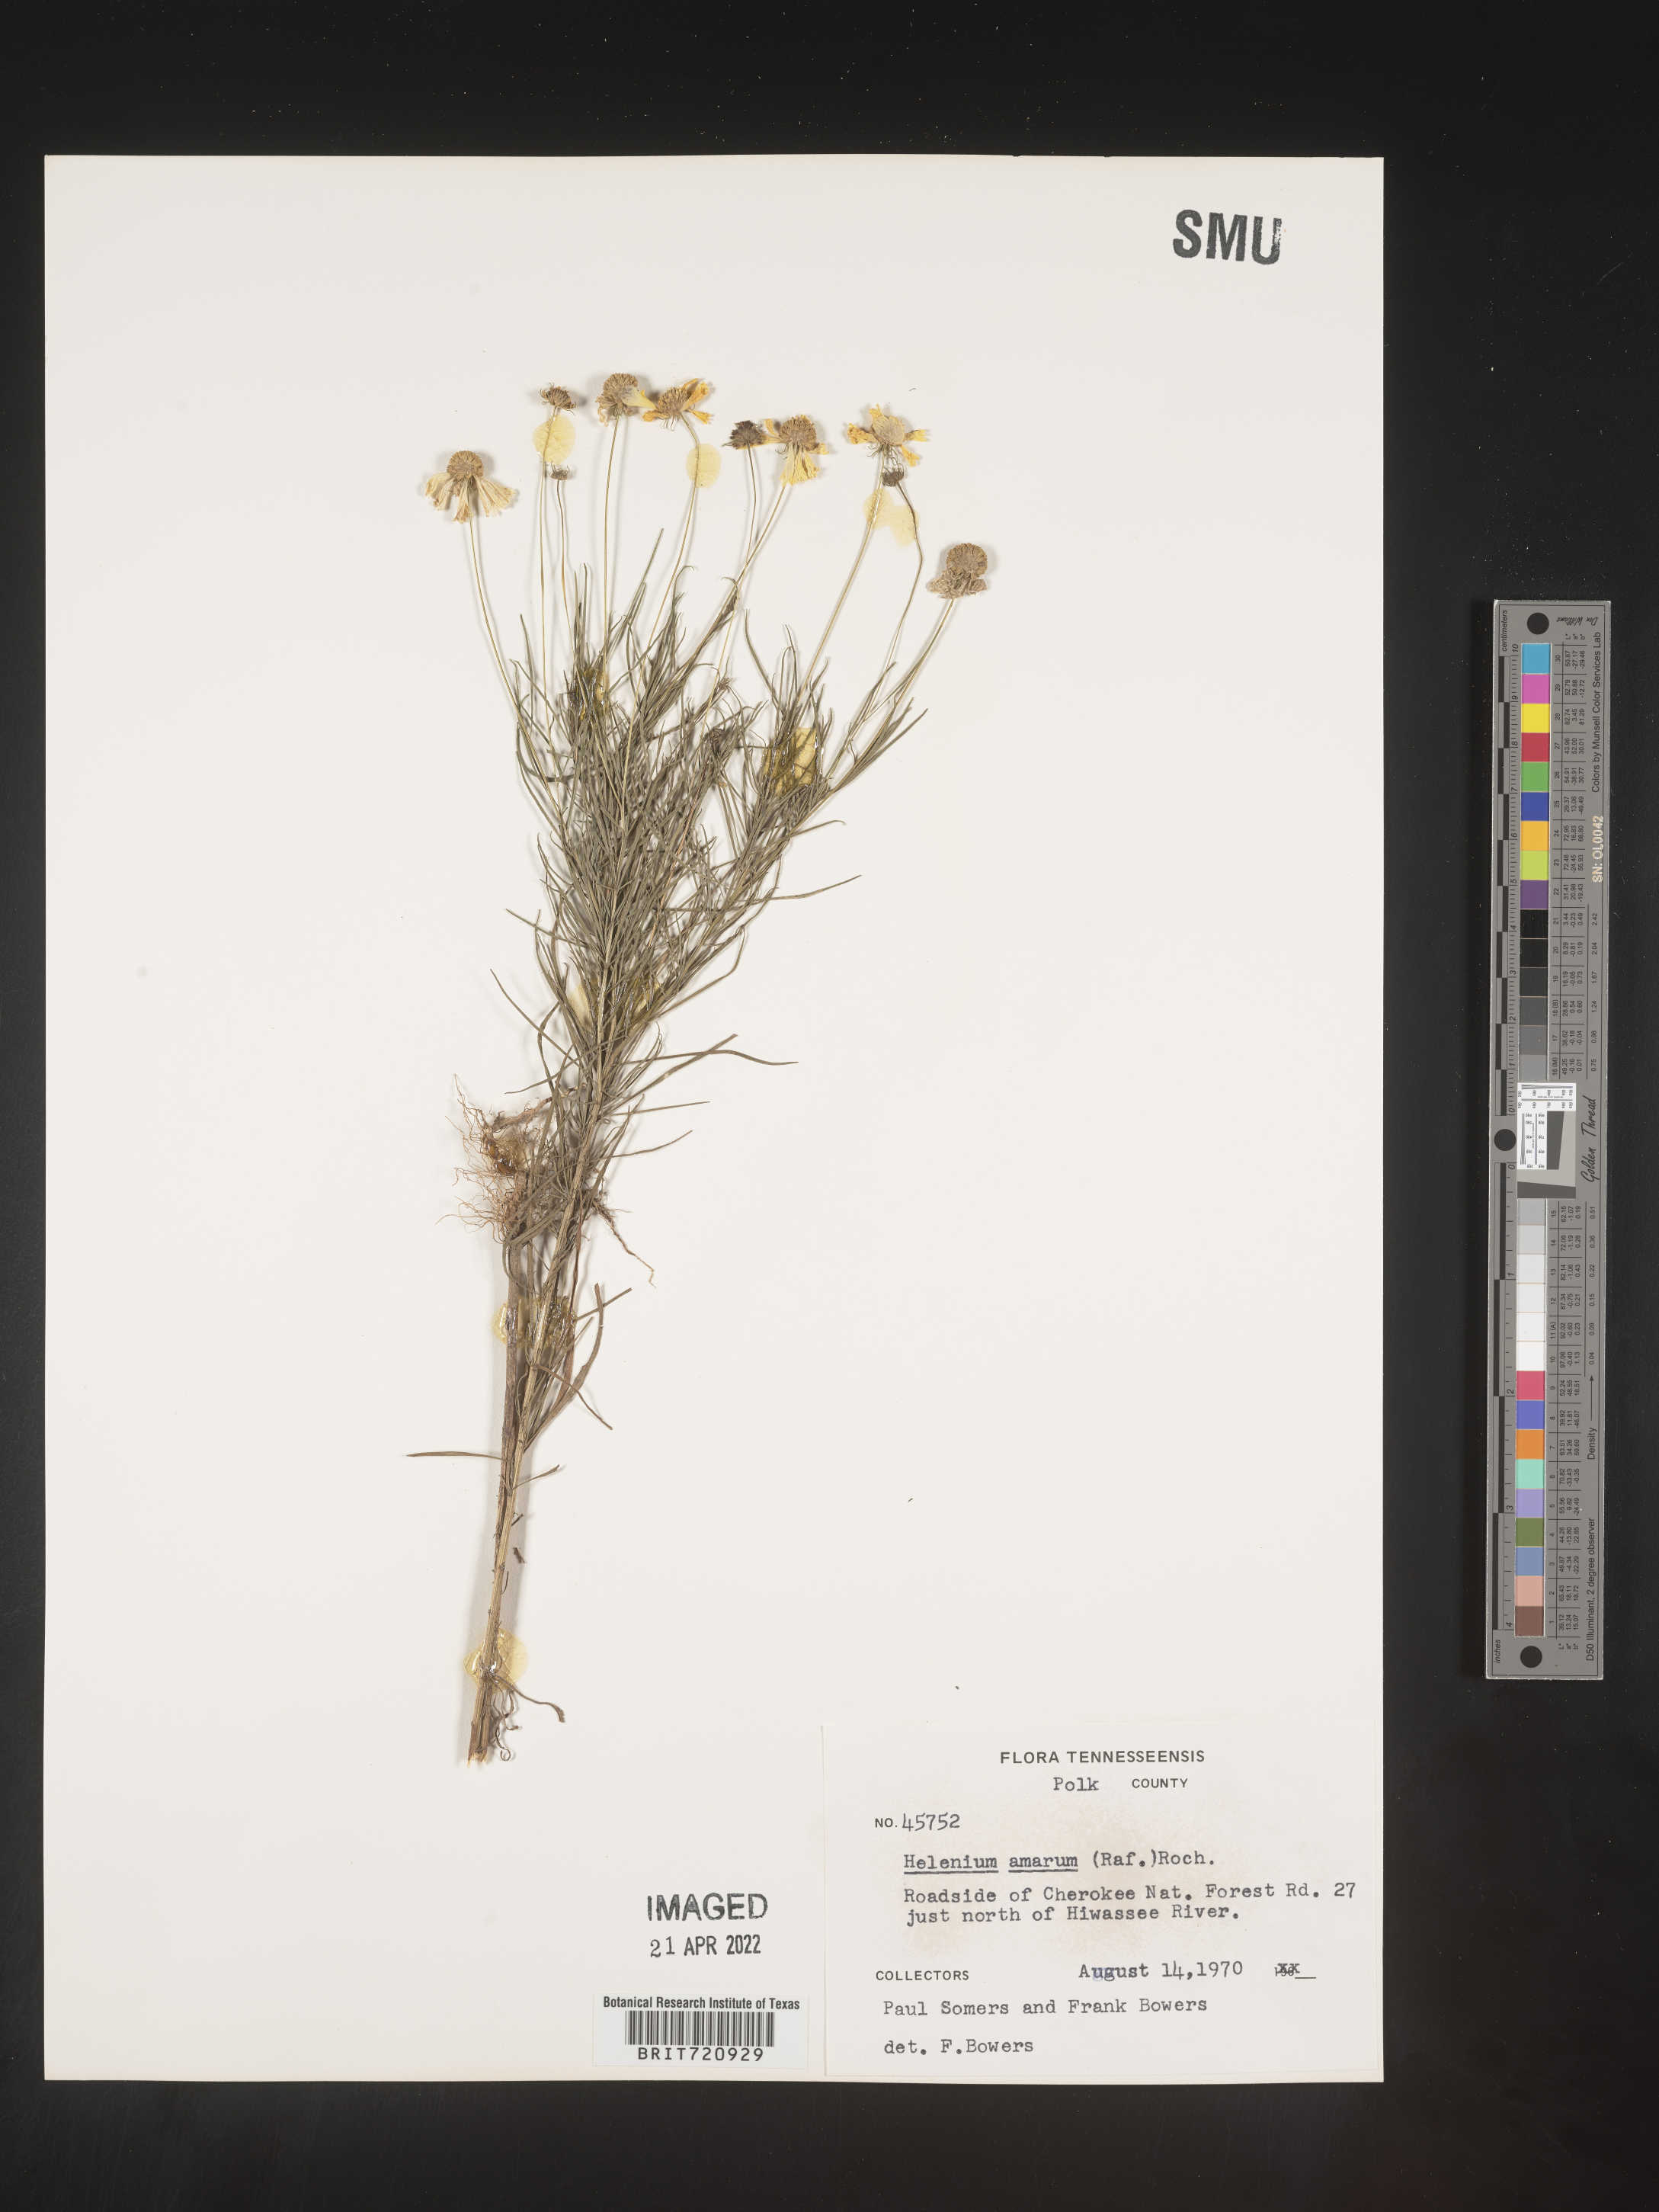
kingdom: Plantae
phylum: Tracheophyta
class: Magnoliopsida
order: Asterales
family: Asteraceae
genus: Helenium
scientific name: Helenium amarum
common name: Bitter sneezeweed
